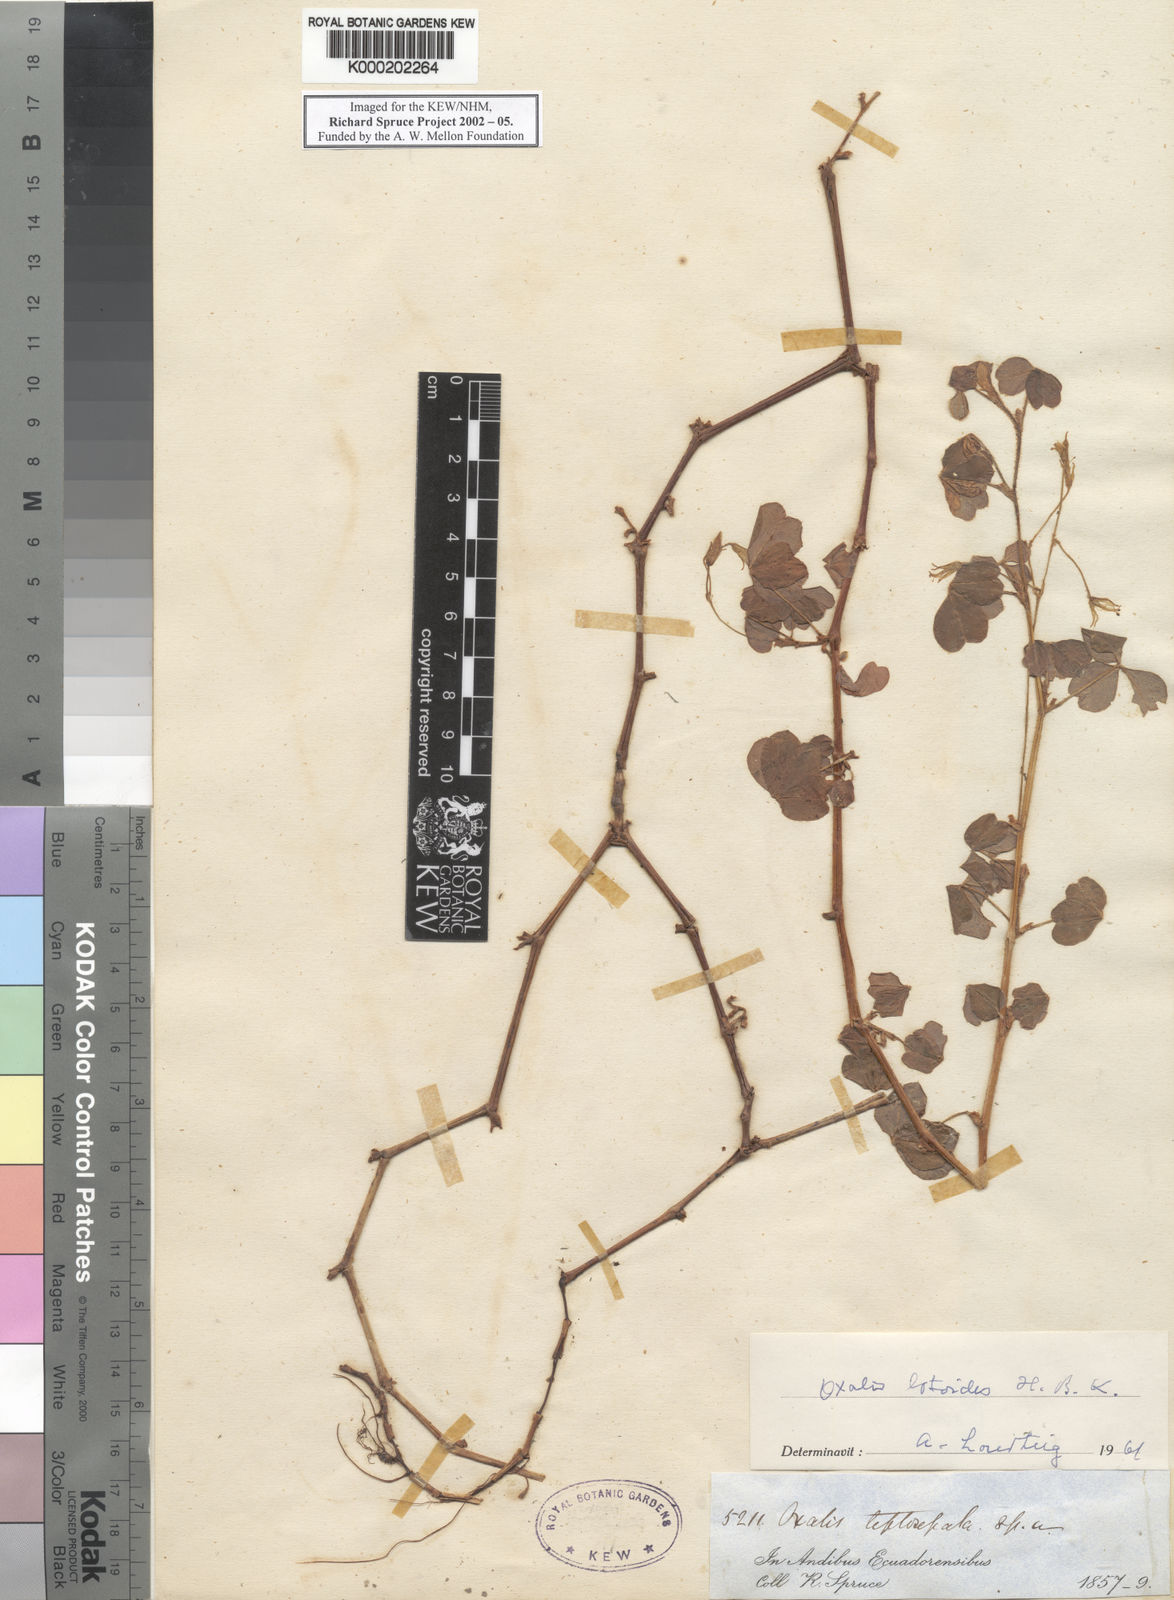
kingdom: Plantae
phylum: Tracheophyta
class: Magnoliopsida
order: Oxalidales
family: Oxalidaceae
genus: Oxalis
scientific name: Oxalis lotoides
